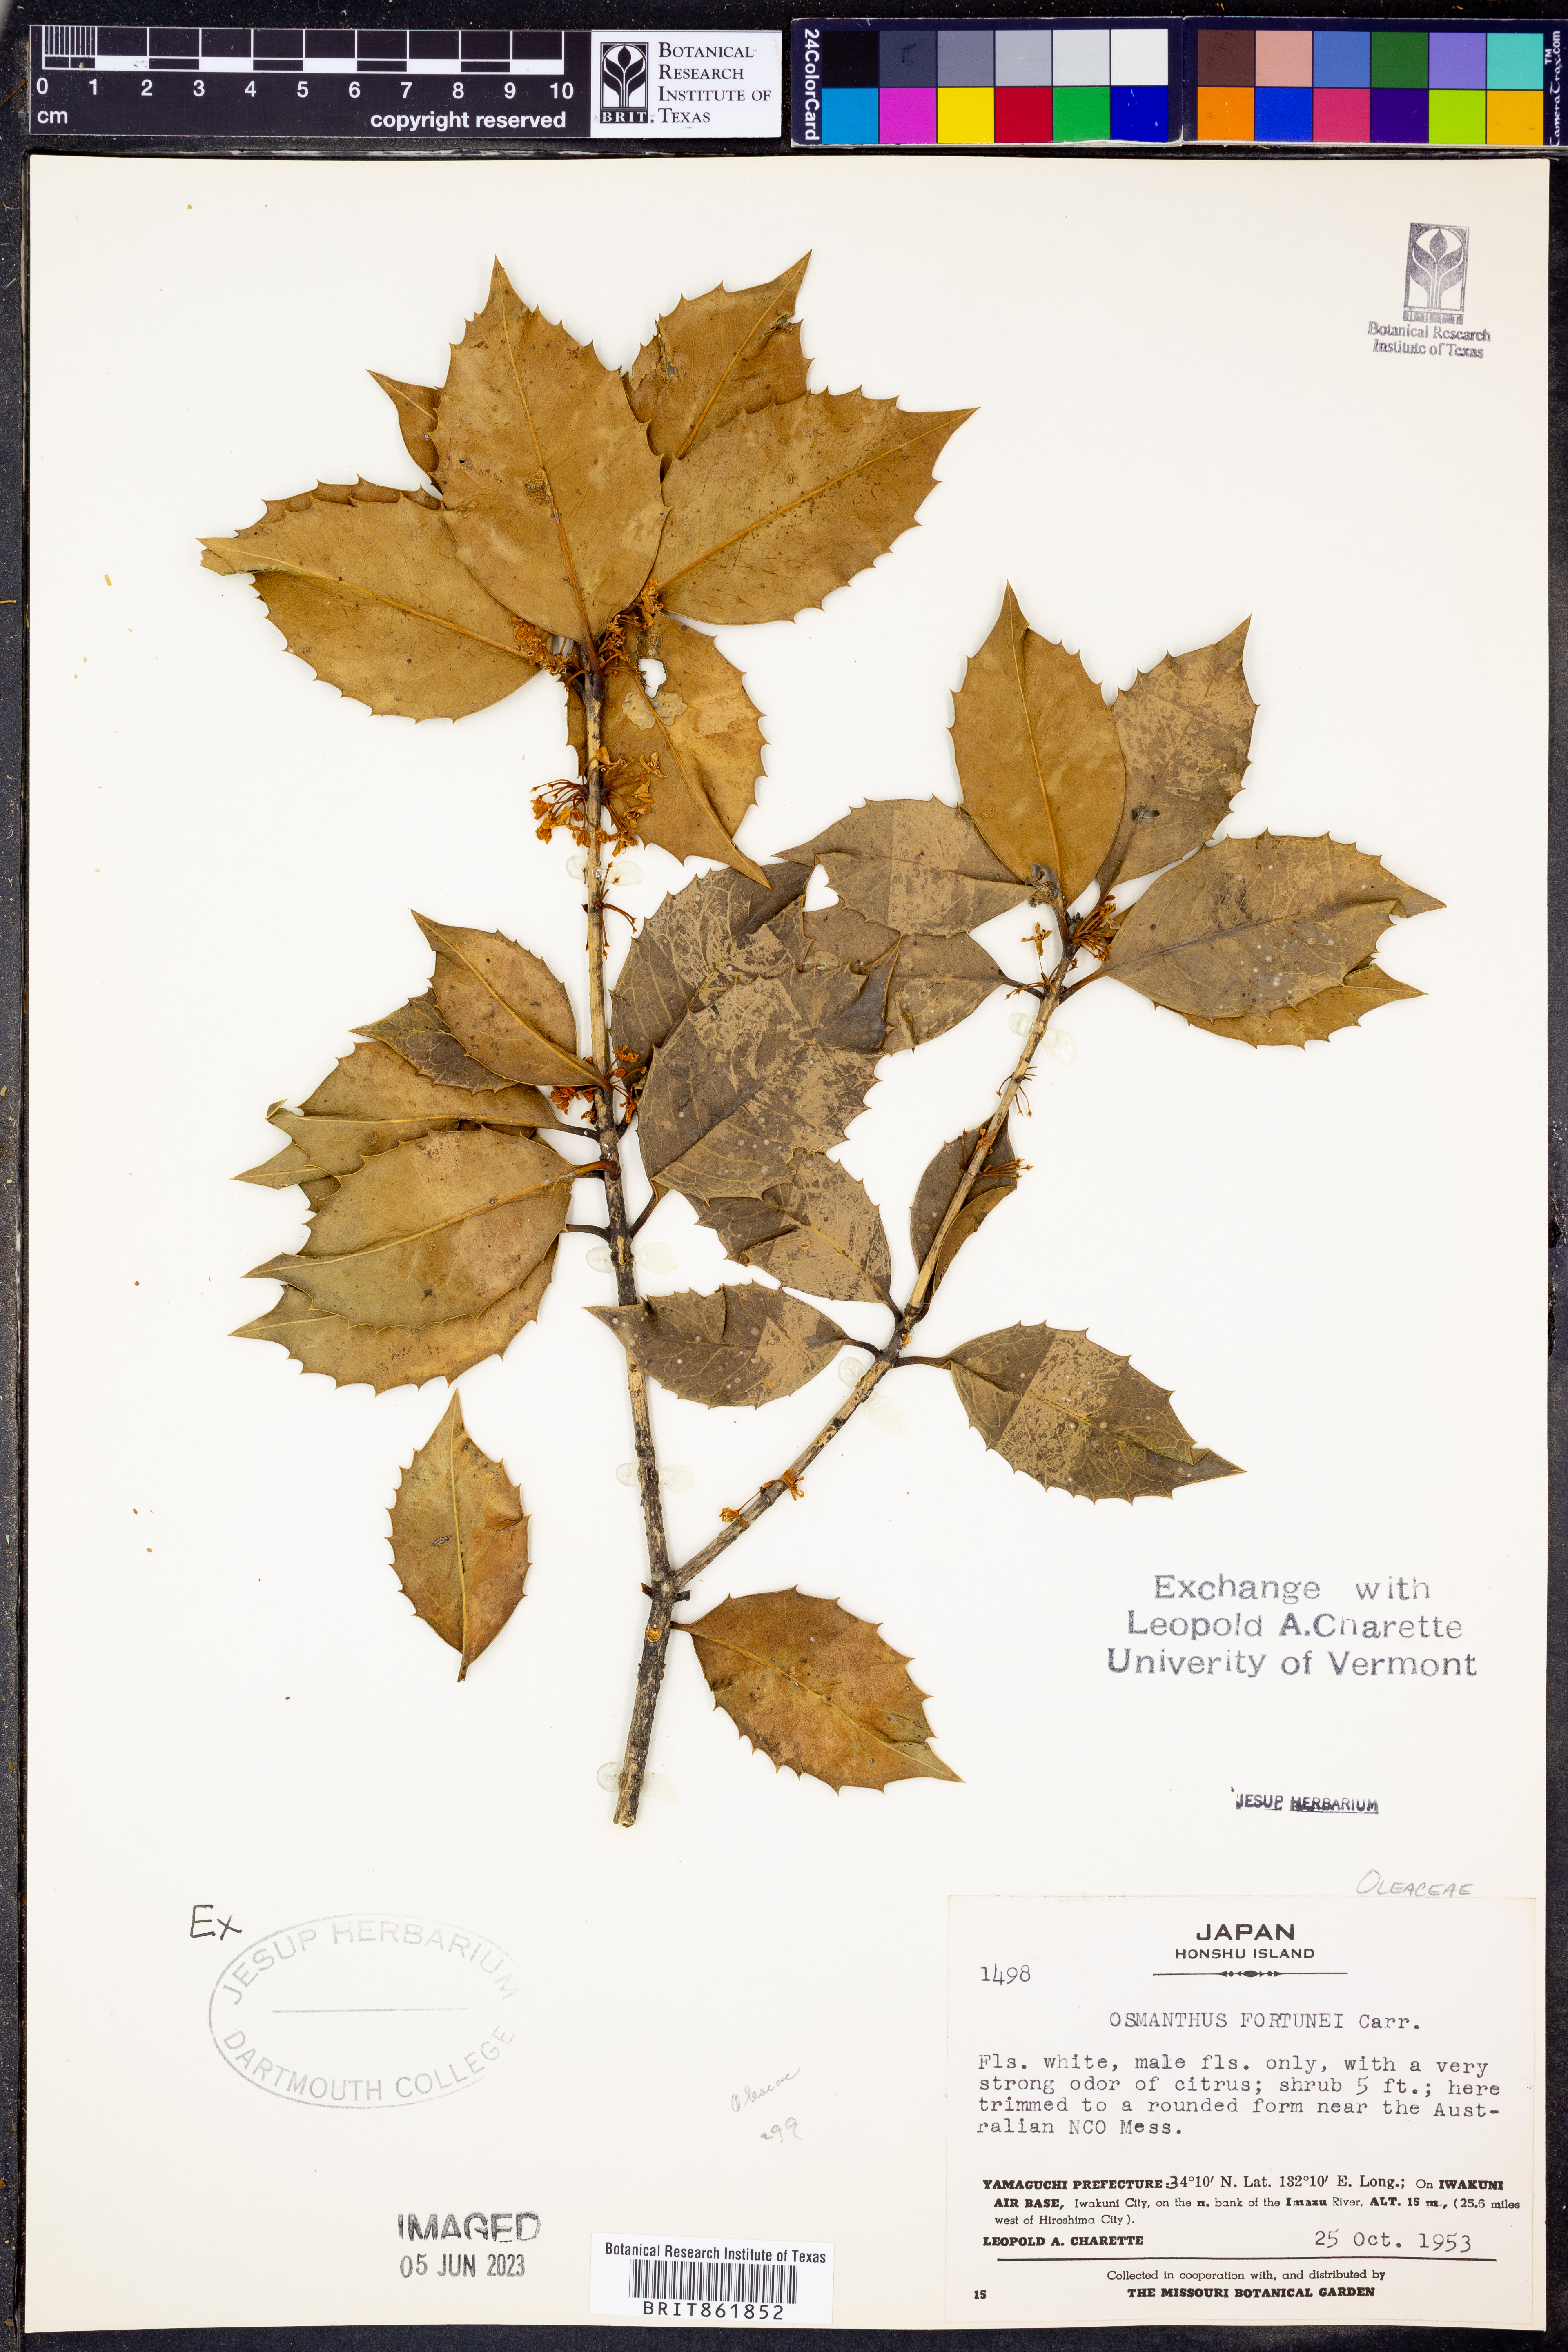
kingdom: Plantae
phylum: Tracheophyta
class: Magnoliopsida
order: Lamiales
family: Oleaceae
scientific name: Oleaceae
